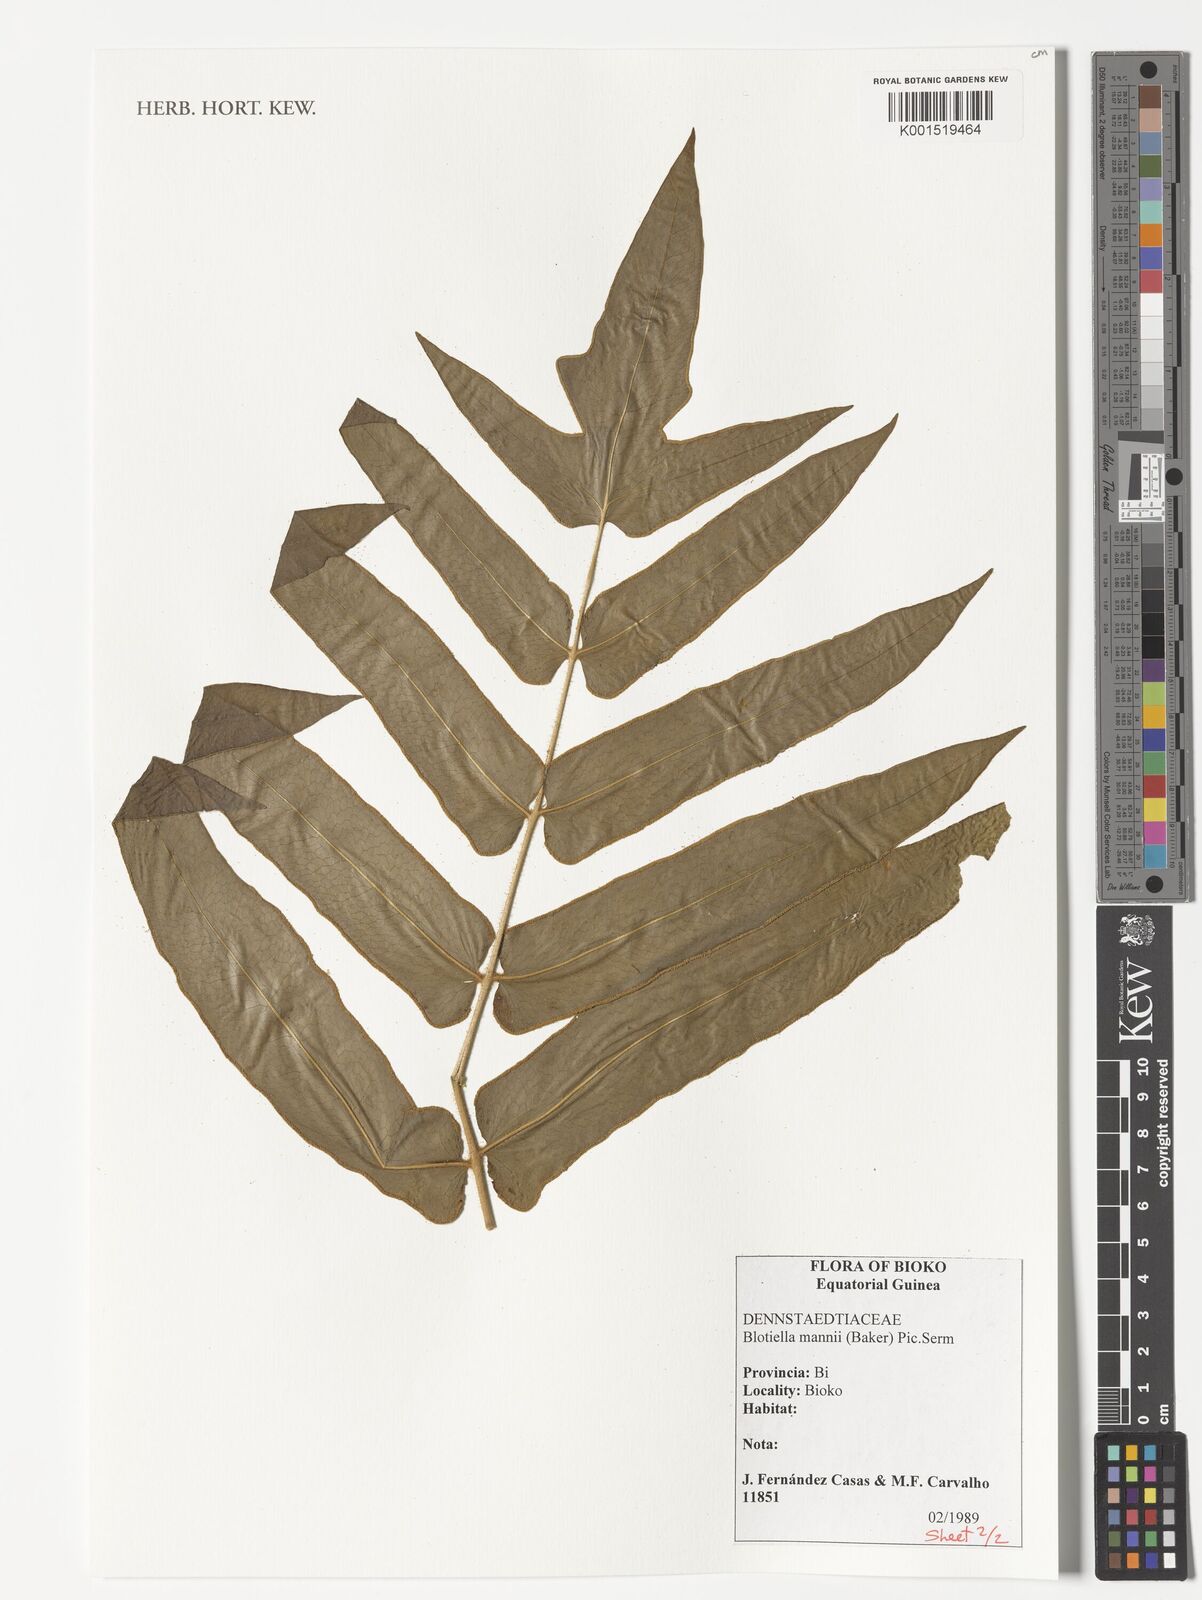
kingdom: Plantae
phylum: Tracheophyta
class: Polypodiopsida
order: Polypodiales
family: Dennstaedtiaceae
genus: Blotiella
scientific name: Blotiella currorii
